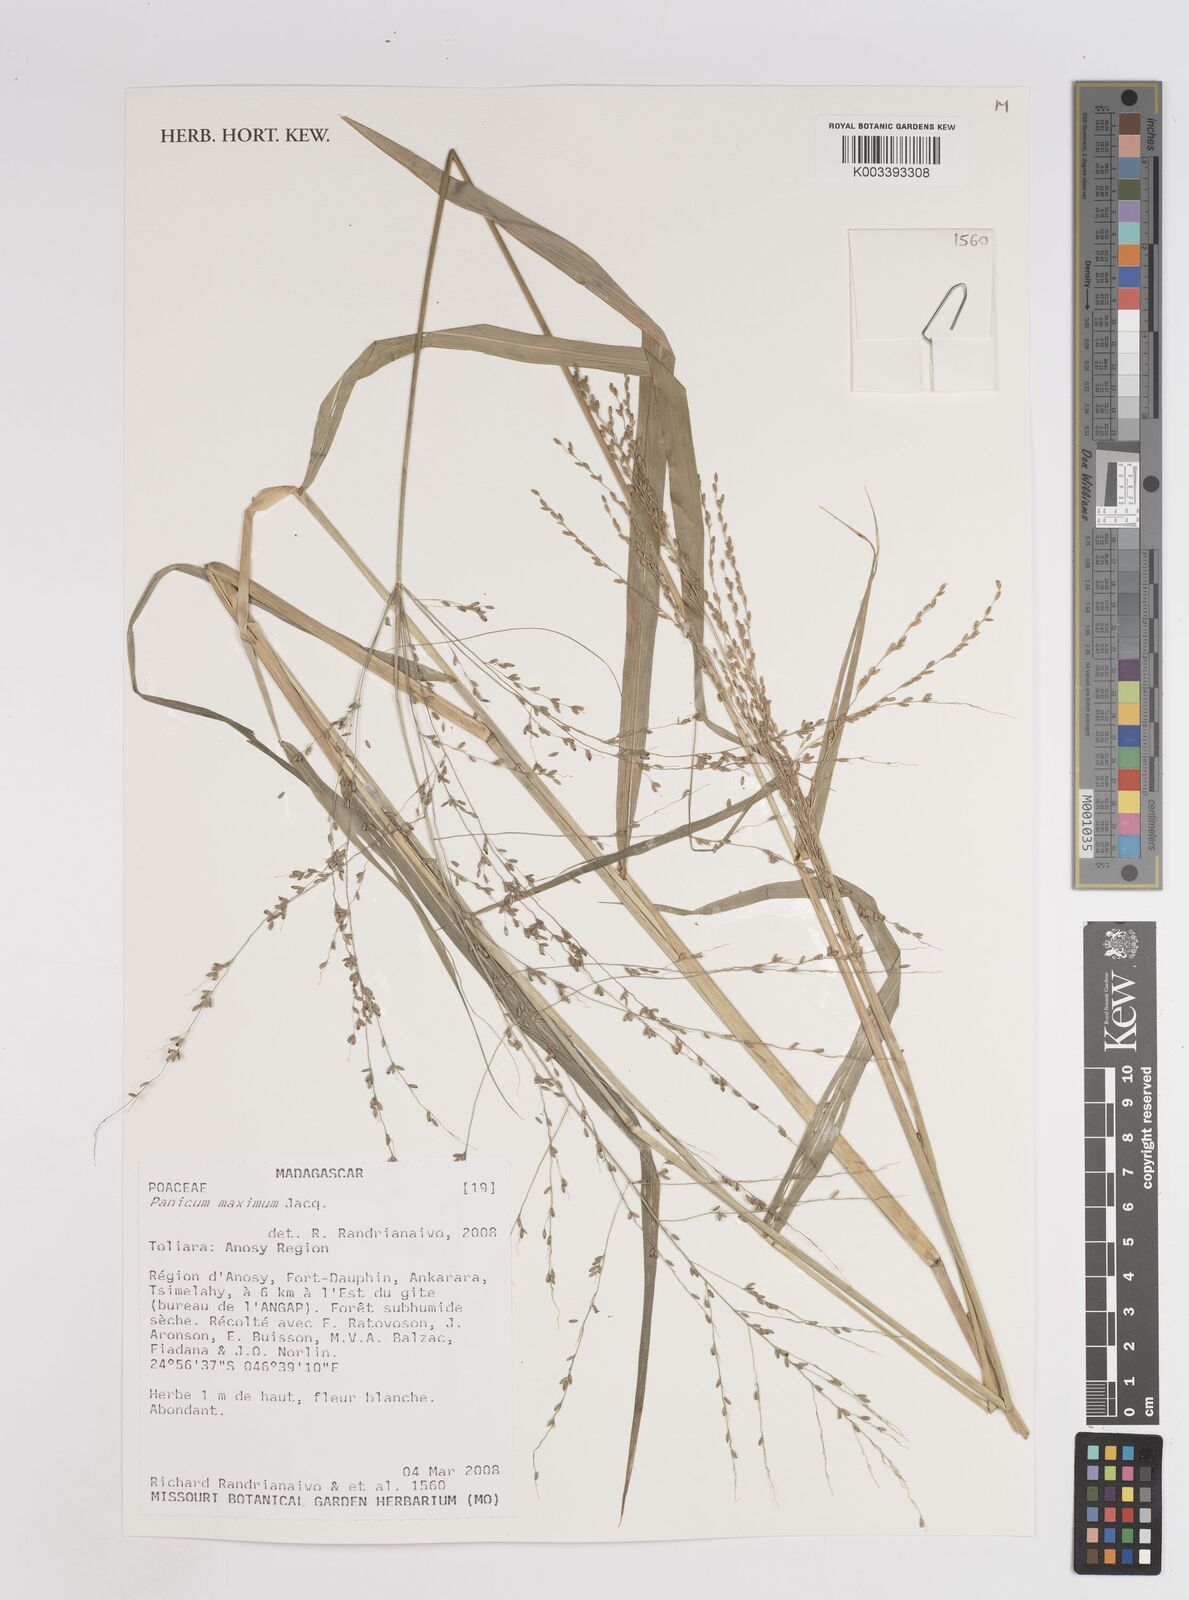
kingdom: Plantae
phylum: Tracheophyta
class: Liliopsida
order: Poales
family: Poaceae
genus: Megathyrsus
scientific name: Megathyrsus maximus
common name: Guineagrass
